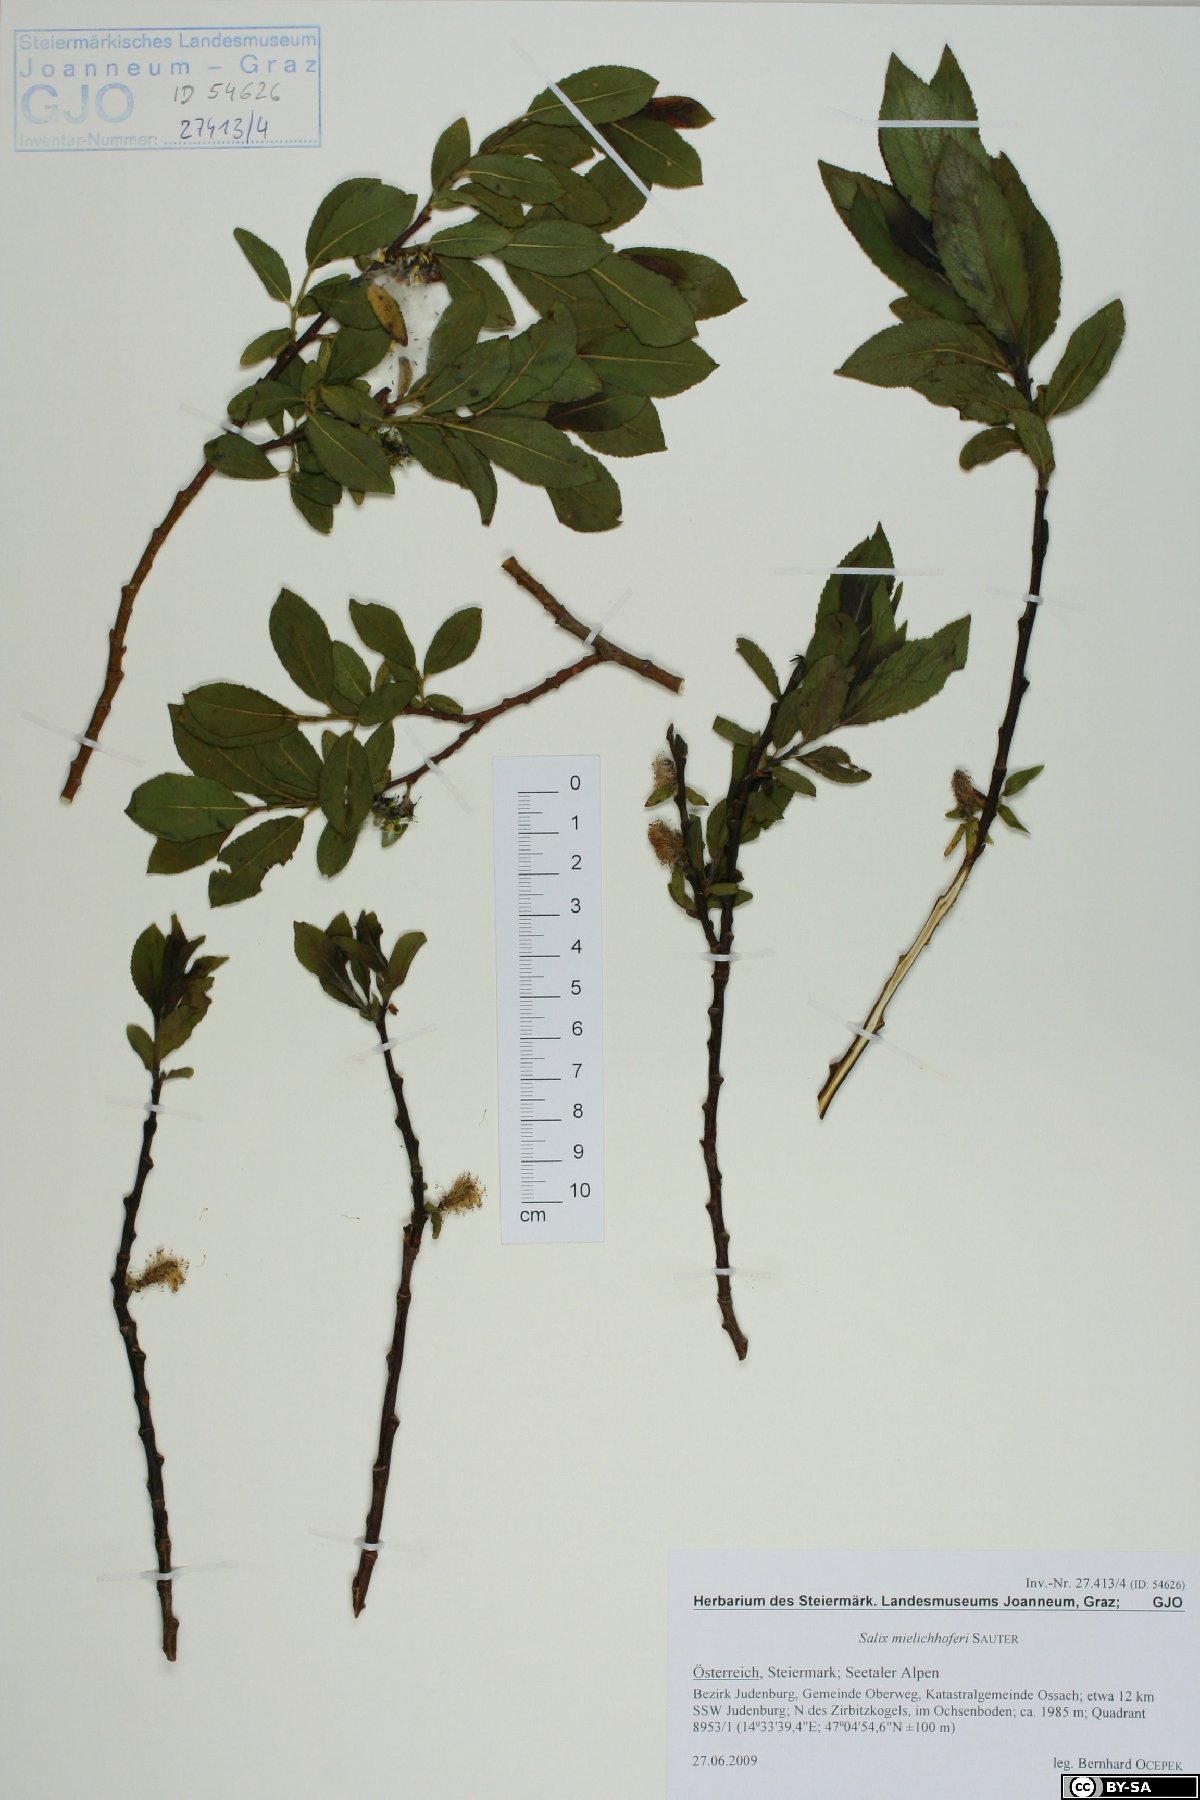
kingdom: Plantae
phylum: Tracheophyta
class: Magnoliopsida
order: Malpighiales
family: Salicaceae
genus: Salix
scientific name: Salix mielichhoferi
